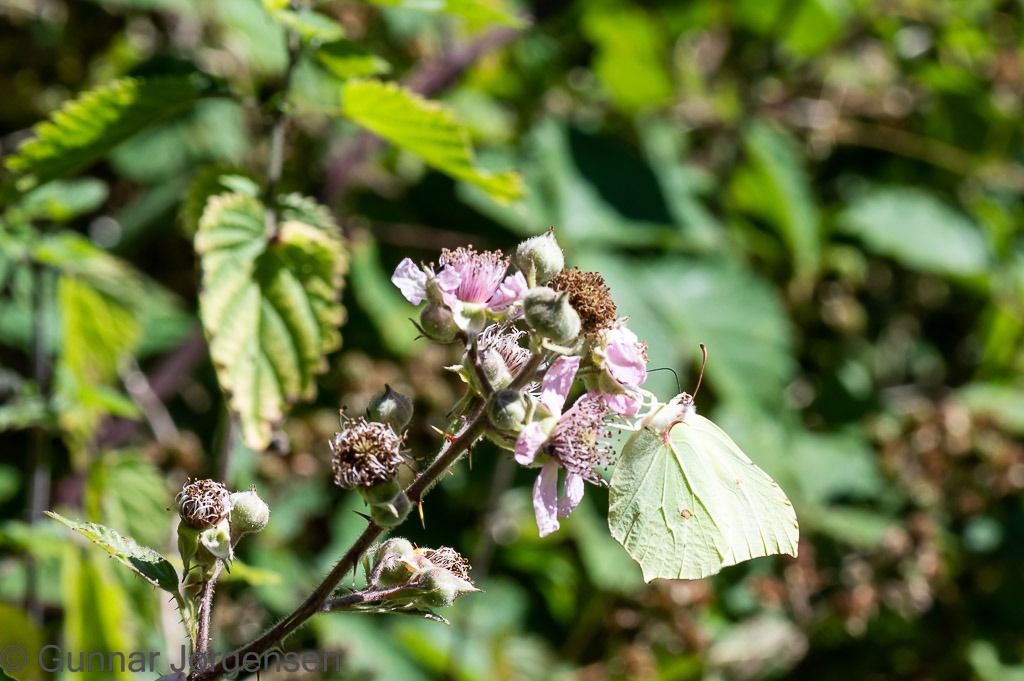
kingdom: Animalia
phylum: Arthropoda
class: Insecta
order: Lepidoptera
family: Pieridae
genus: Gonepteryx
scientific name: Gonepteryx rhamni
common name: Citronsommerfugl
